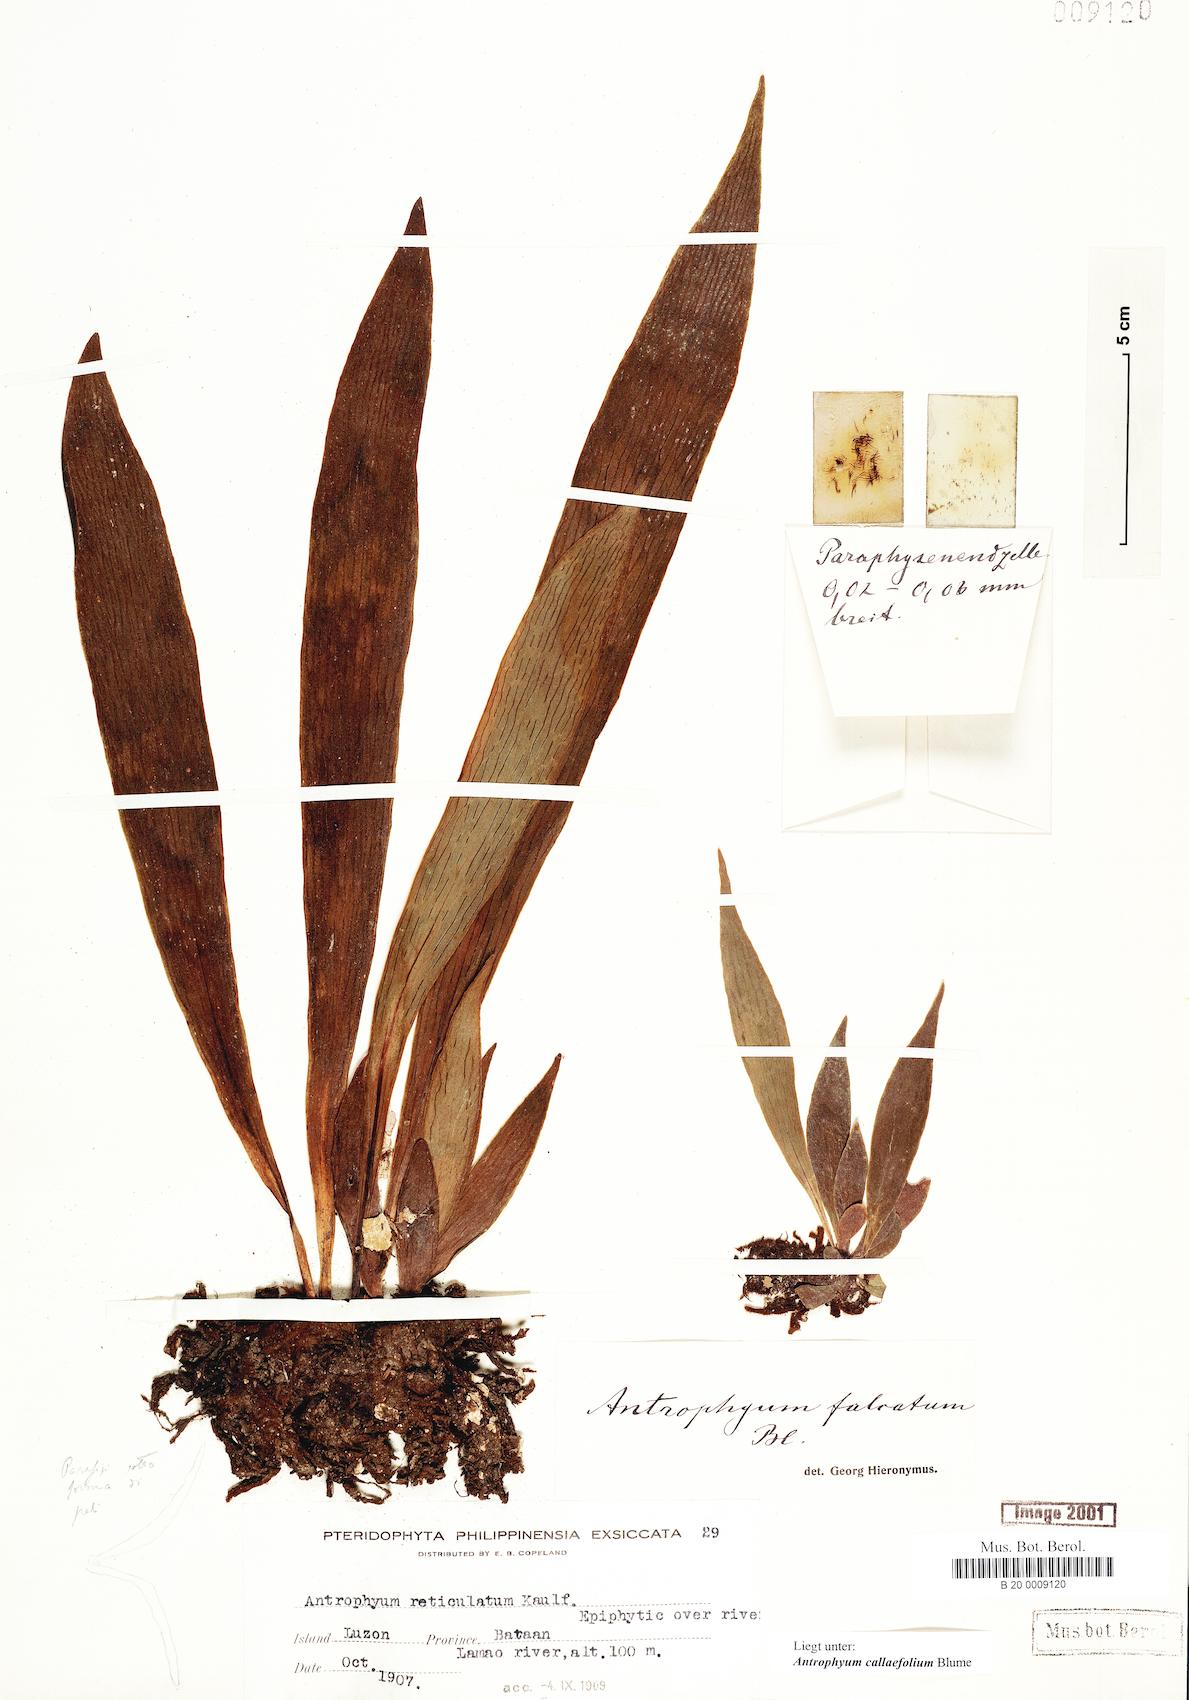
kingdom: Plantae
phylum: Tracheophyta
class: Polypodiopsida
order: Polypodiales
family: Pteridaceae
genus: Antrophyum
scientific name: Antrophyum callifolium
